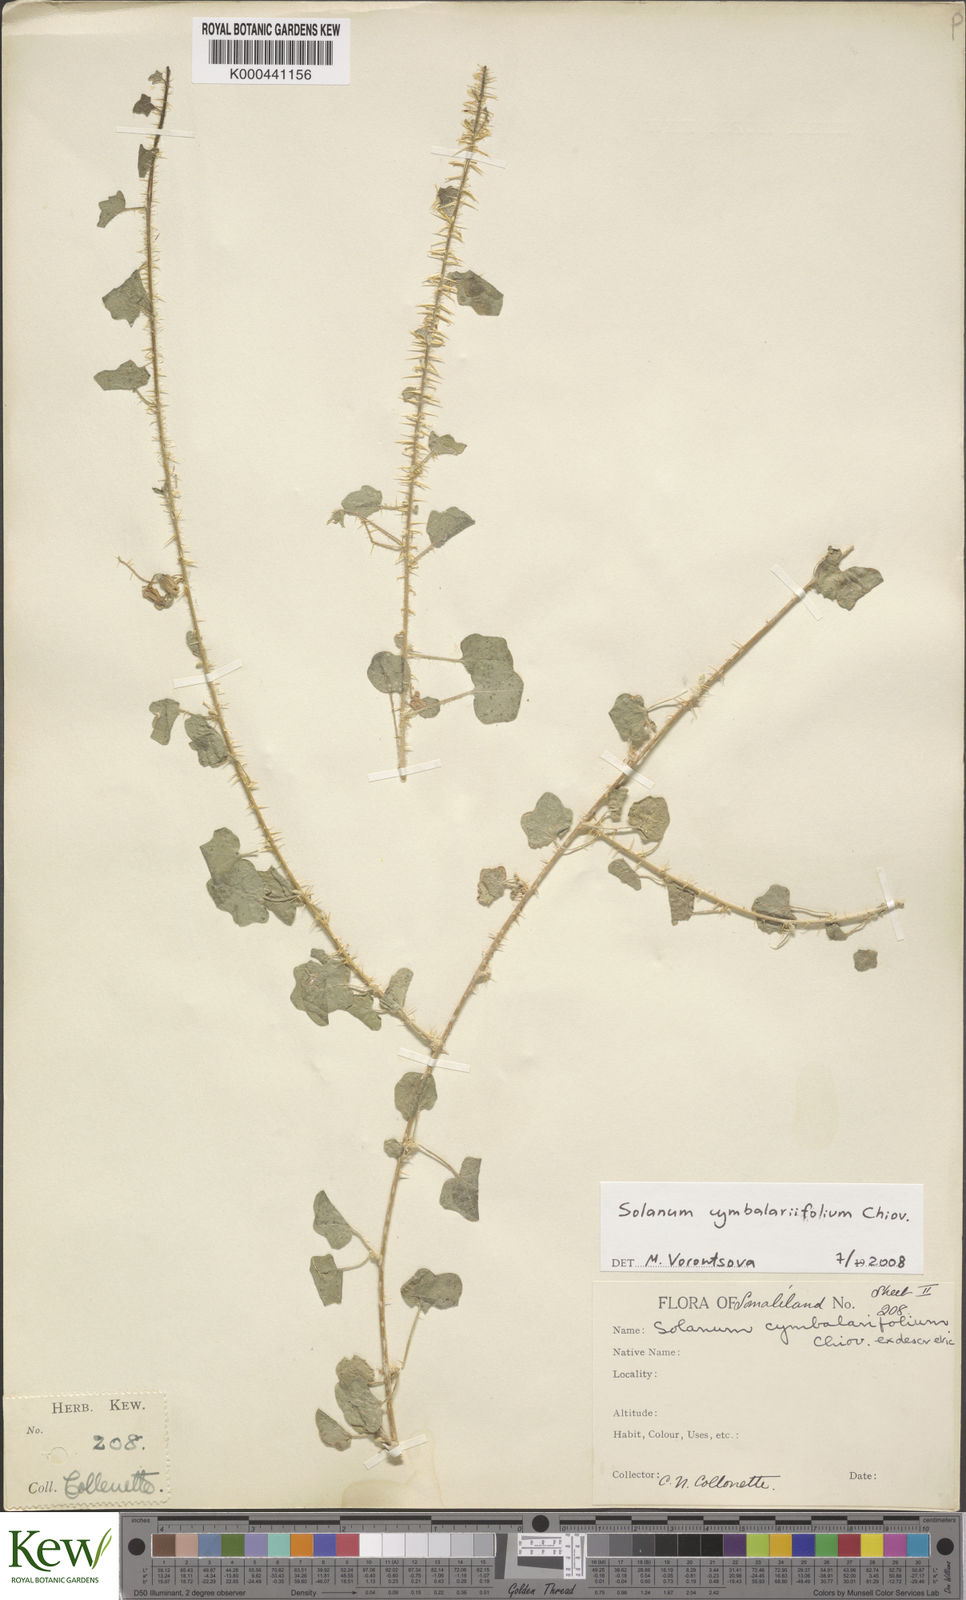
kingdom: Plantae
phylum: Tracheophyta
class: Magnoliopsida
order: Solanales
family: Solanaceae
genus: Solanum
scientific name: Solanum cymbalariifolium
